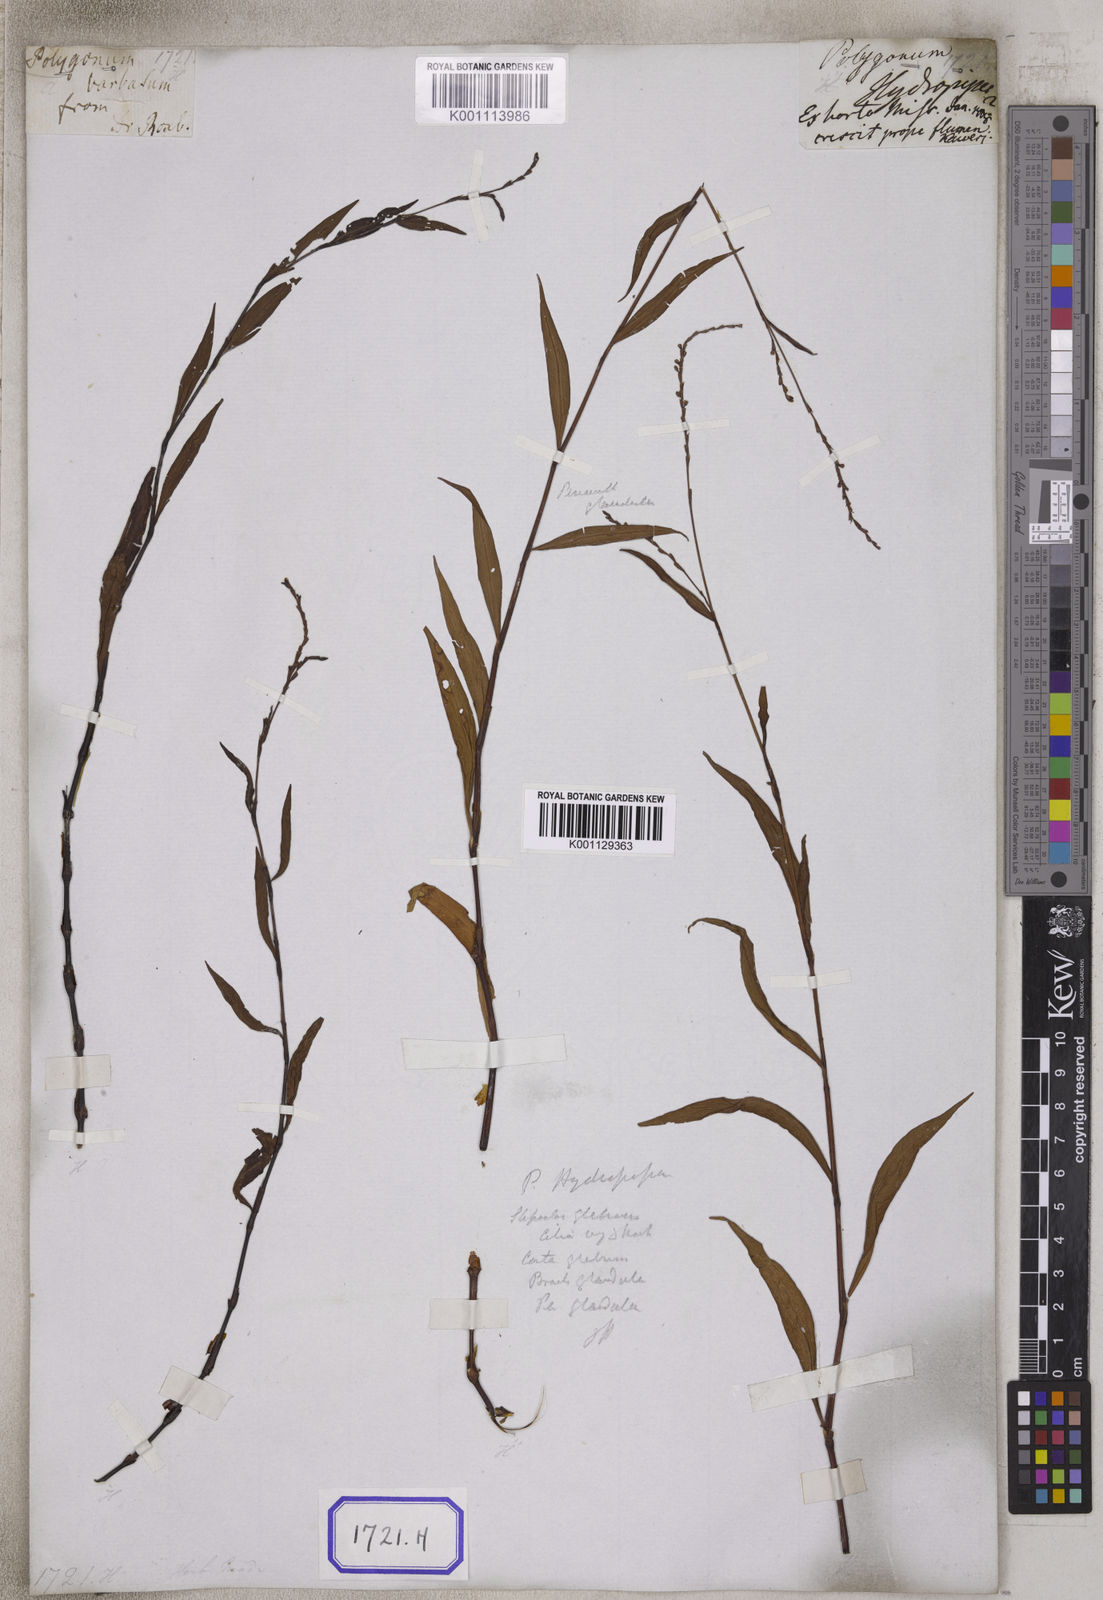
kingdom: Plantae
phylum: Tracheophyta
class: Magnoliopsida
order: Caryophyllales
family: Polygonaceae
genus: Persicaria
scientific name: Persicaria hydropiperoides
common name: Swamp smartweed
